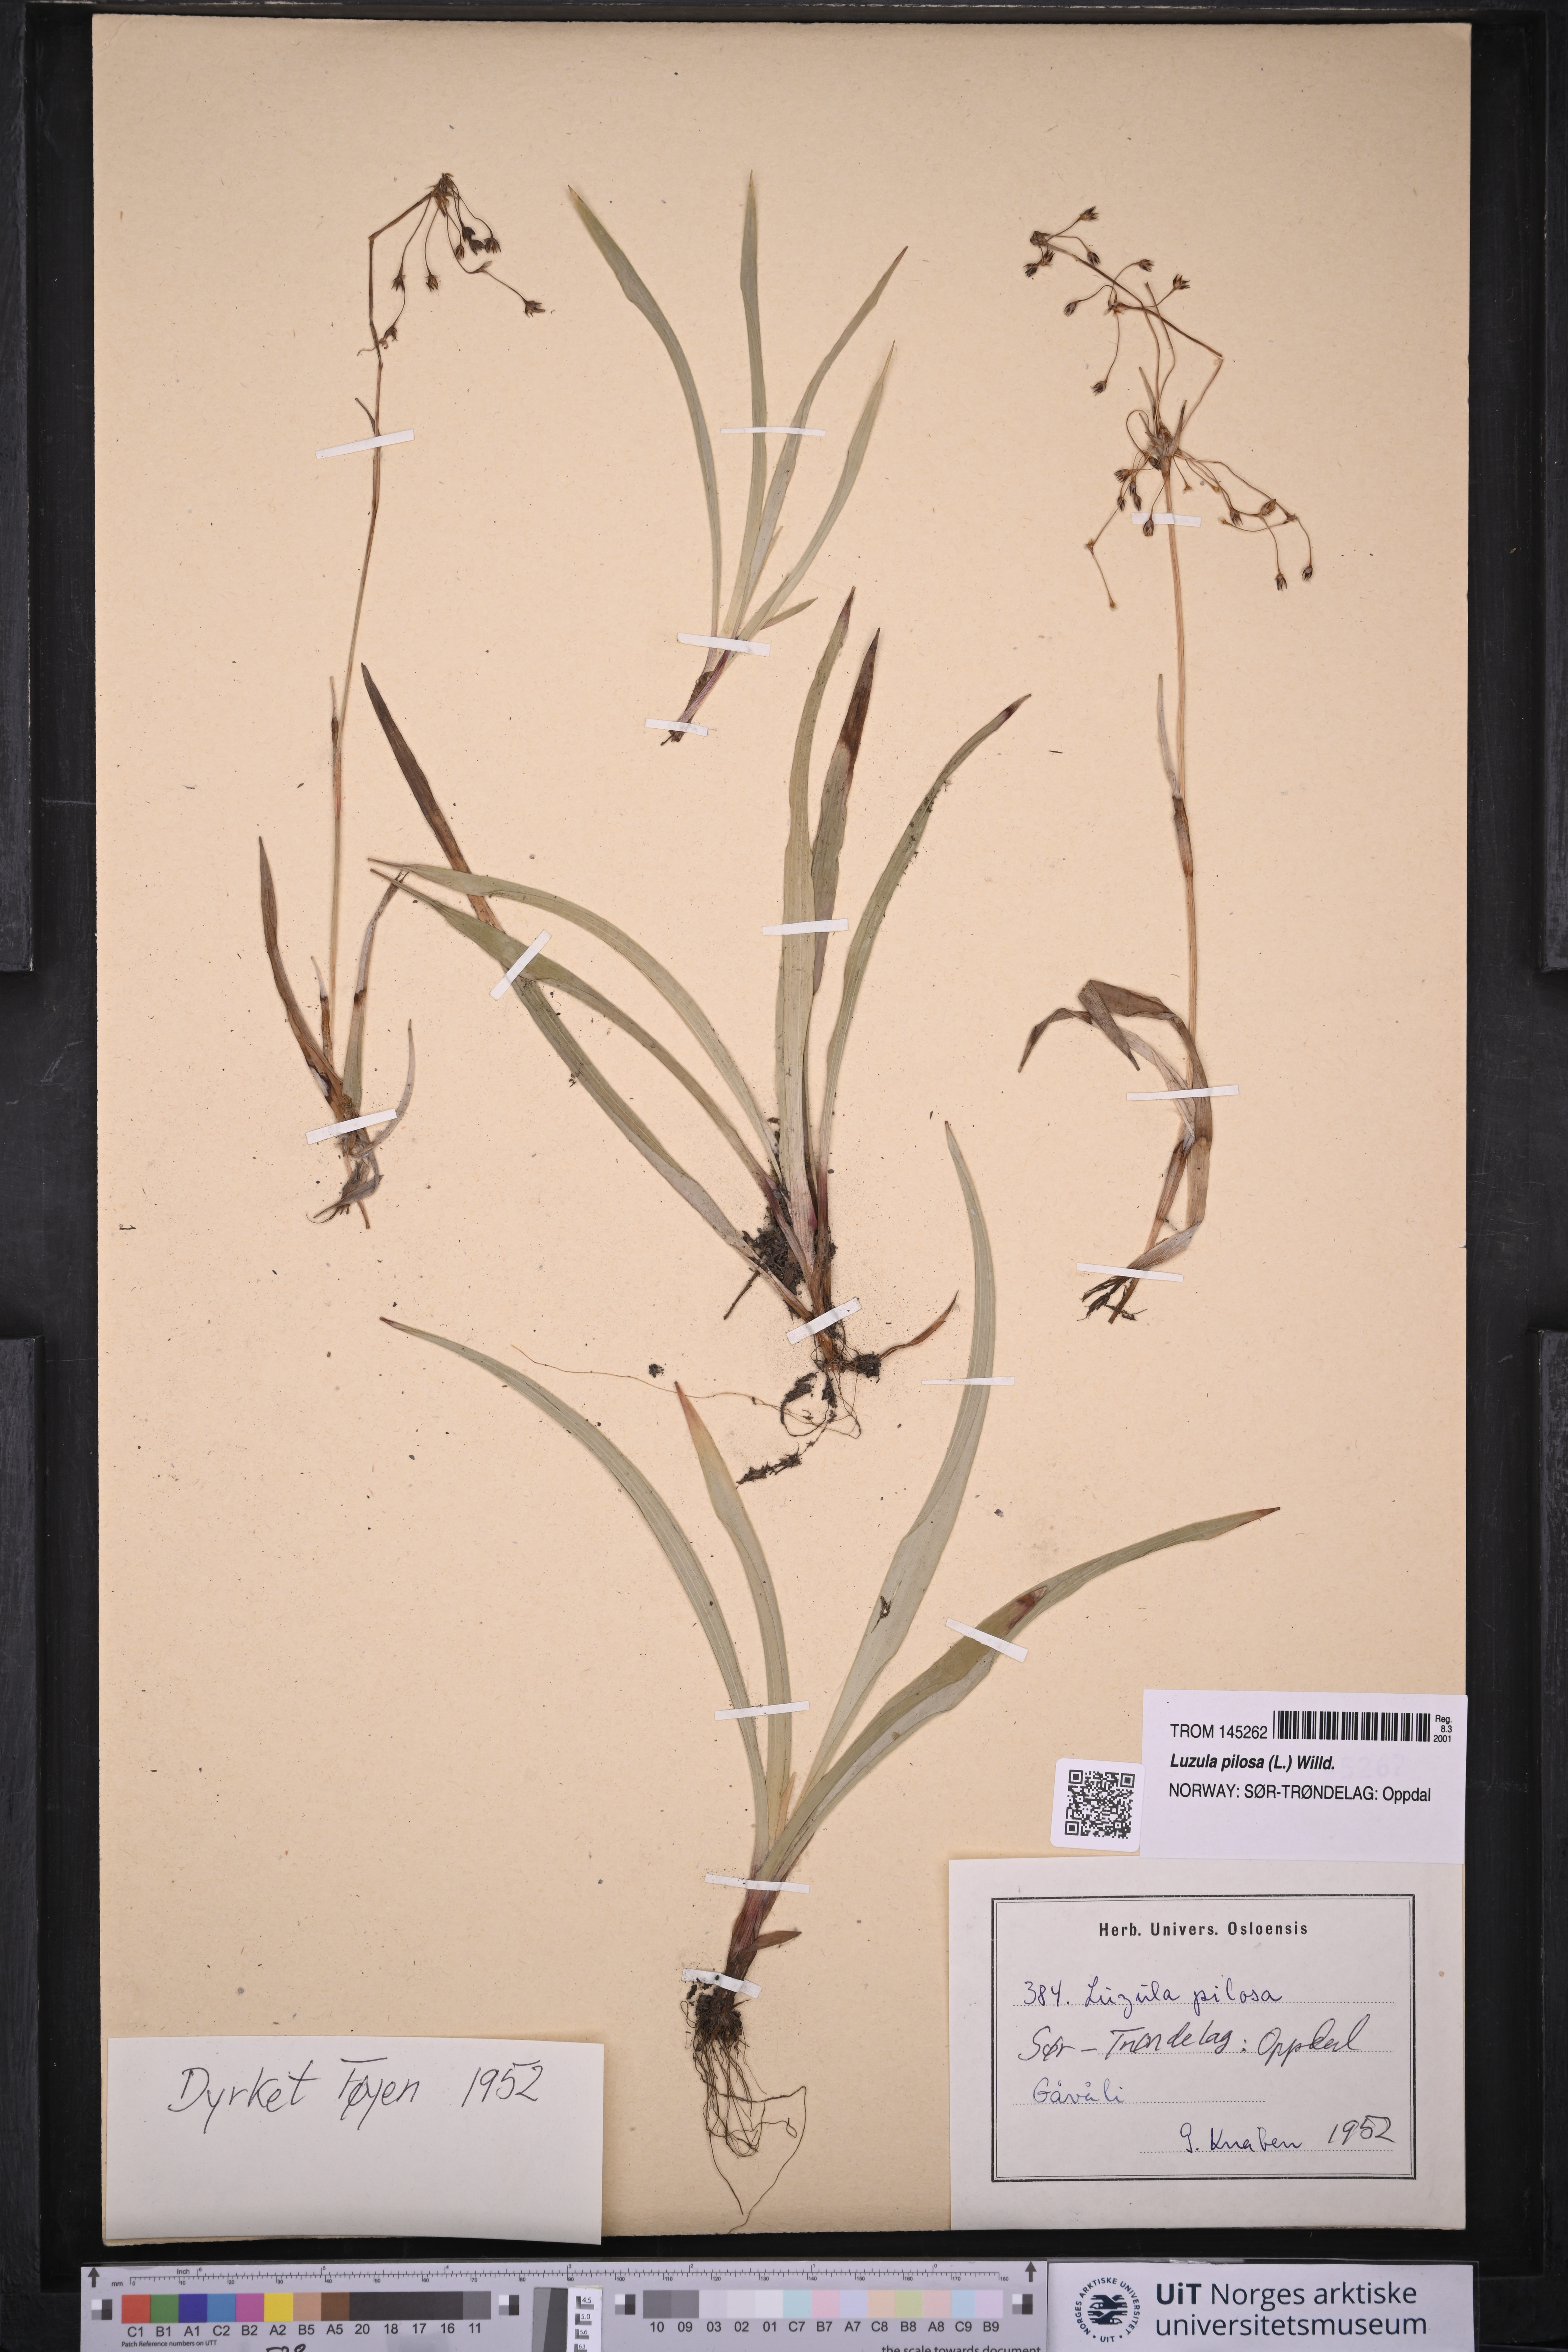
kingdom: Plantae
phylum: Tracheophyta
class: Liliopsida
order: Poales
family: Juncaceae
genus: Luzula
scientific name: Luzula pilosa
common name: Hairy wood-rush
